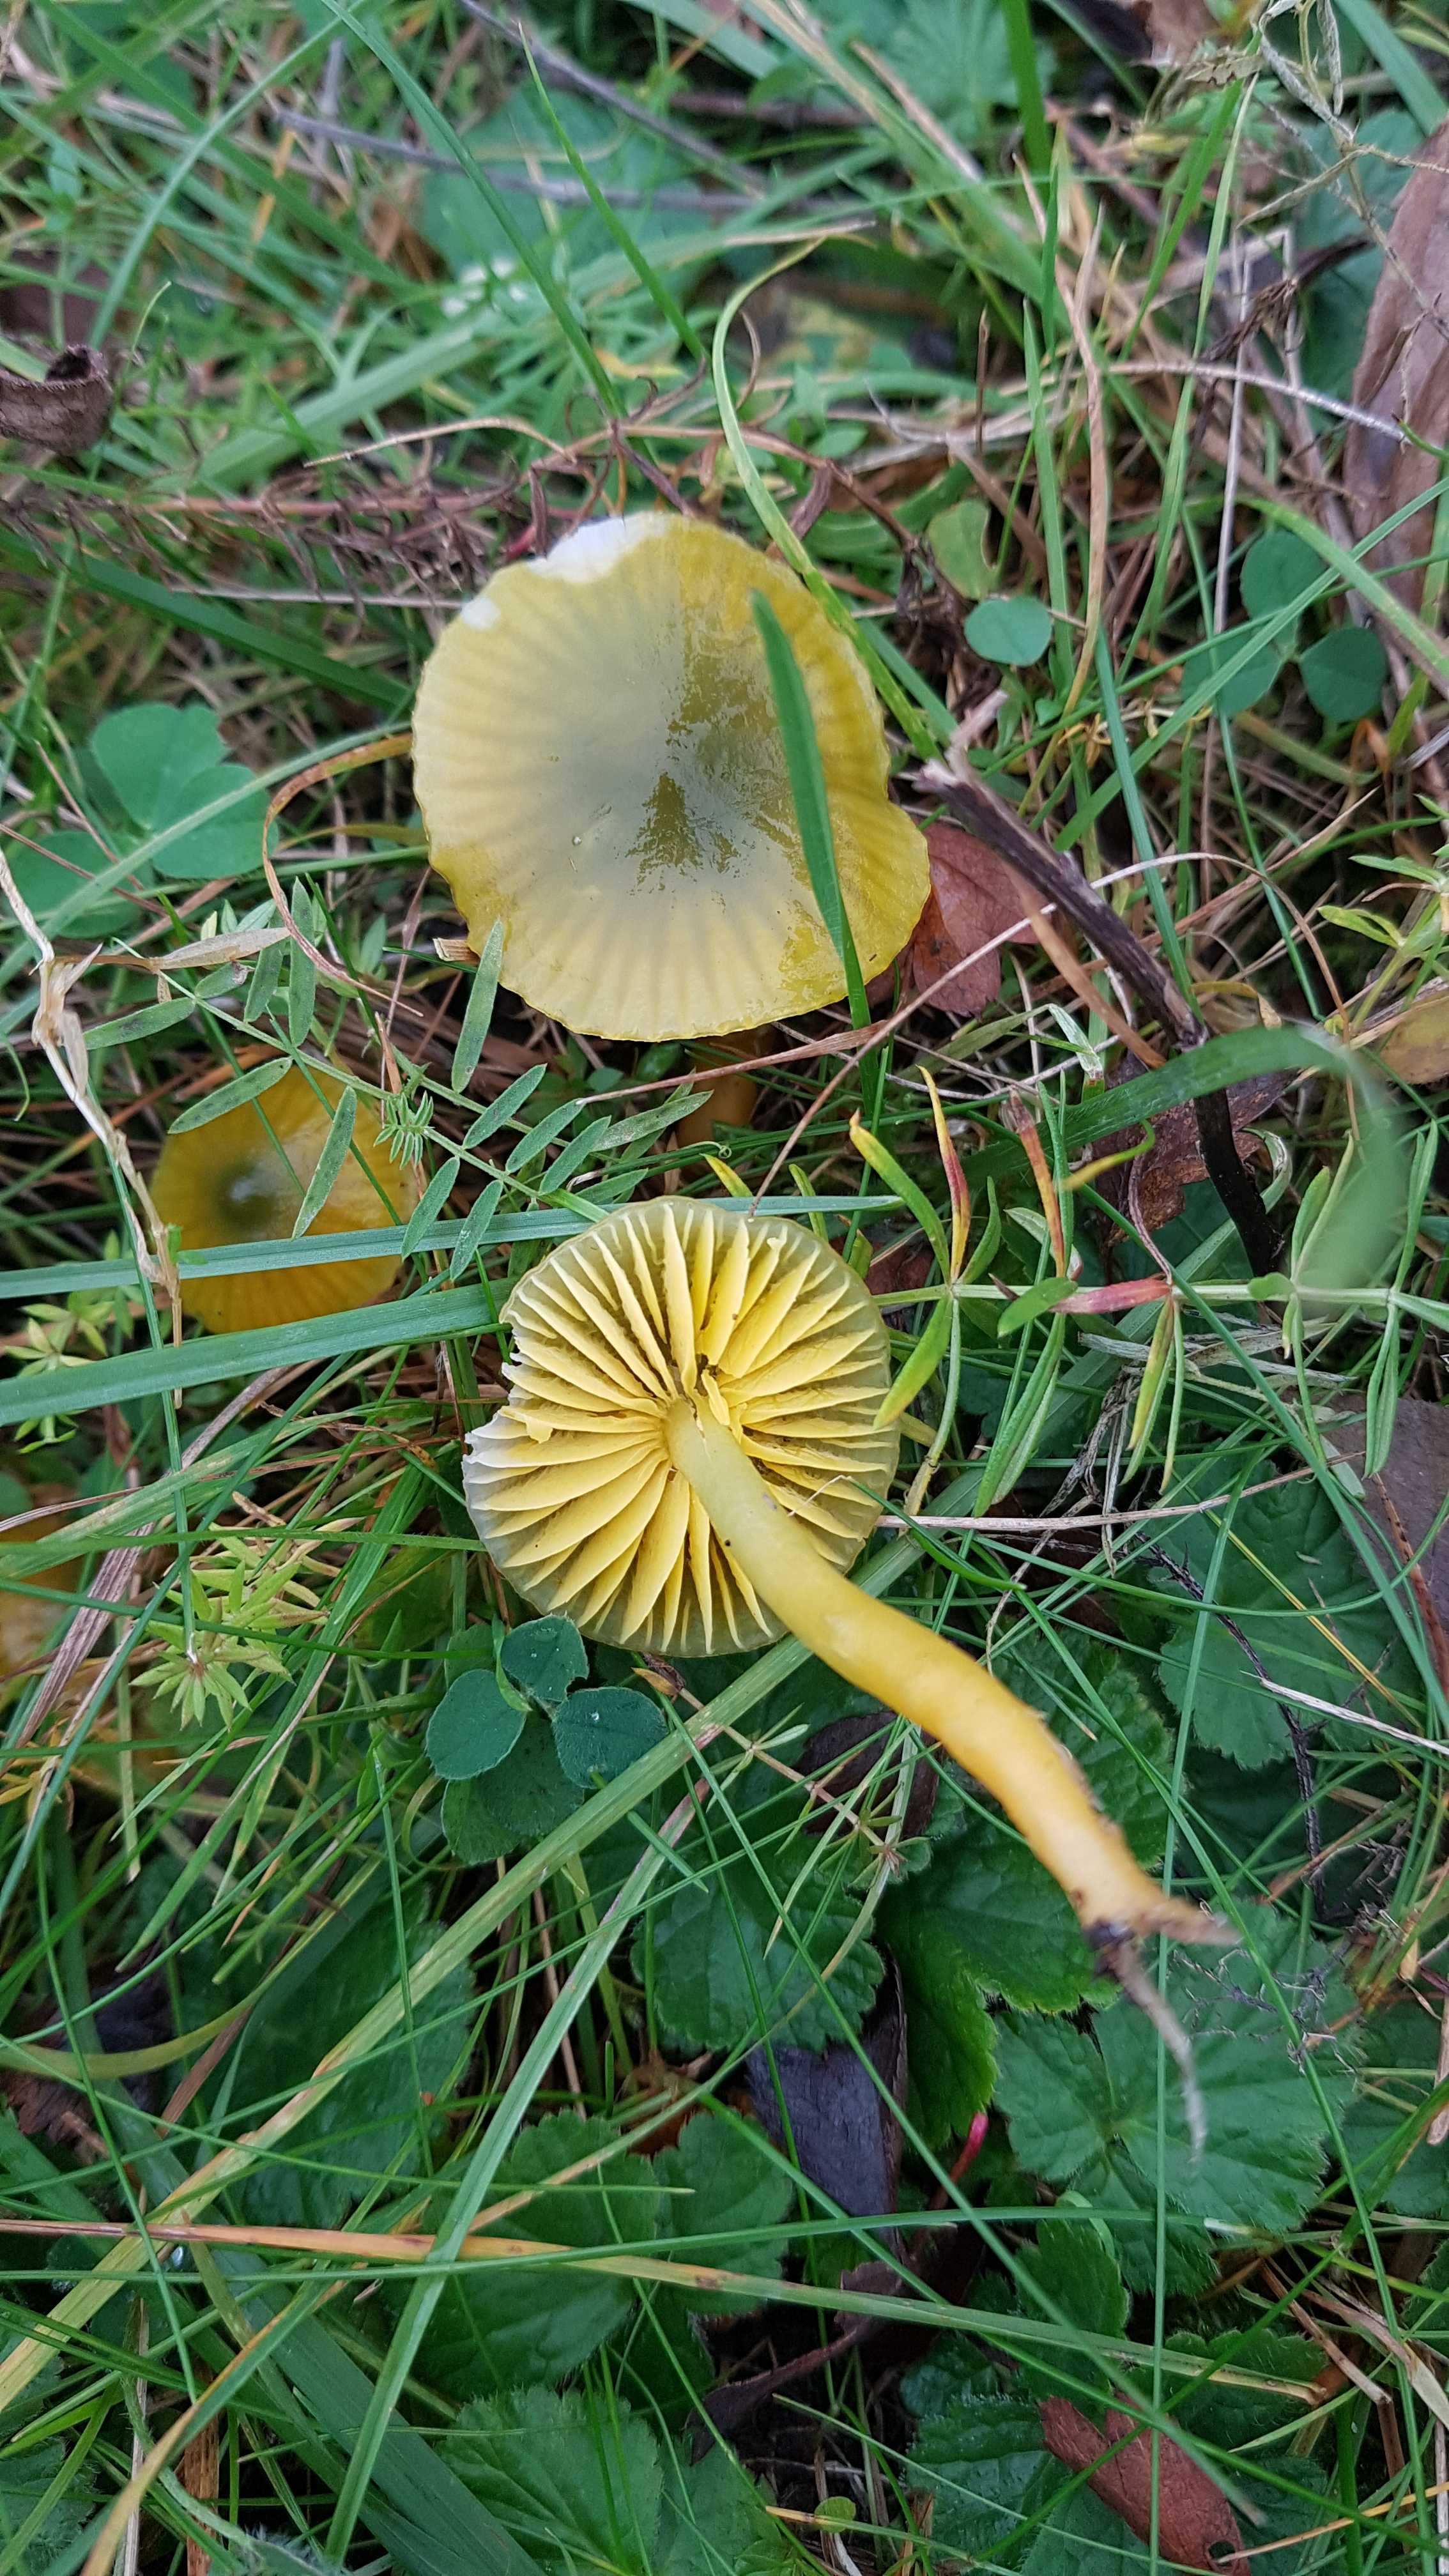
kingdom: Fungi
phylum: Basidiomycota
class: Agaricomycetes
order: Agaricales
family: Hygrophoraceae
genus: Gliophorus
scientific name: Gliophorus psittacinus
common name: papegøje-vokshat
